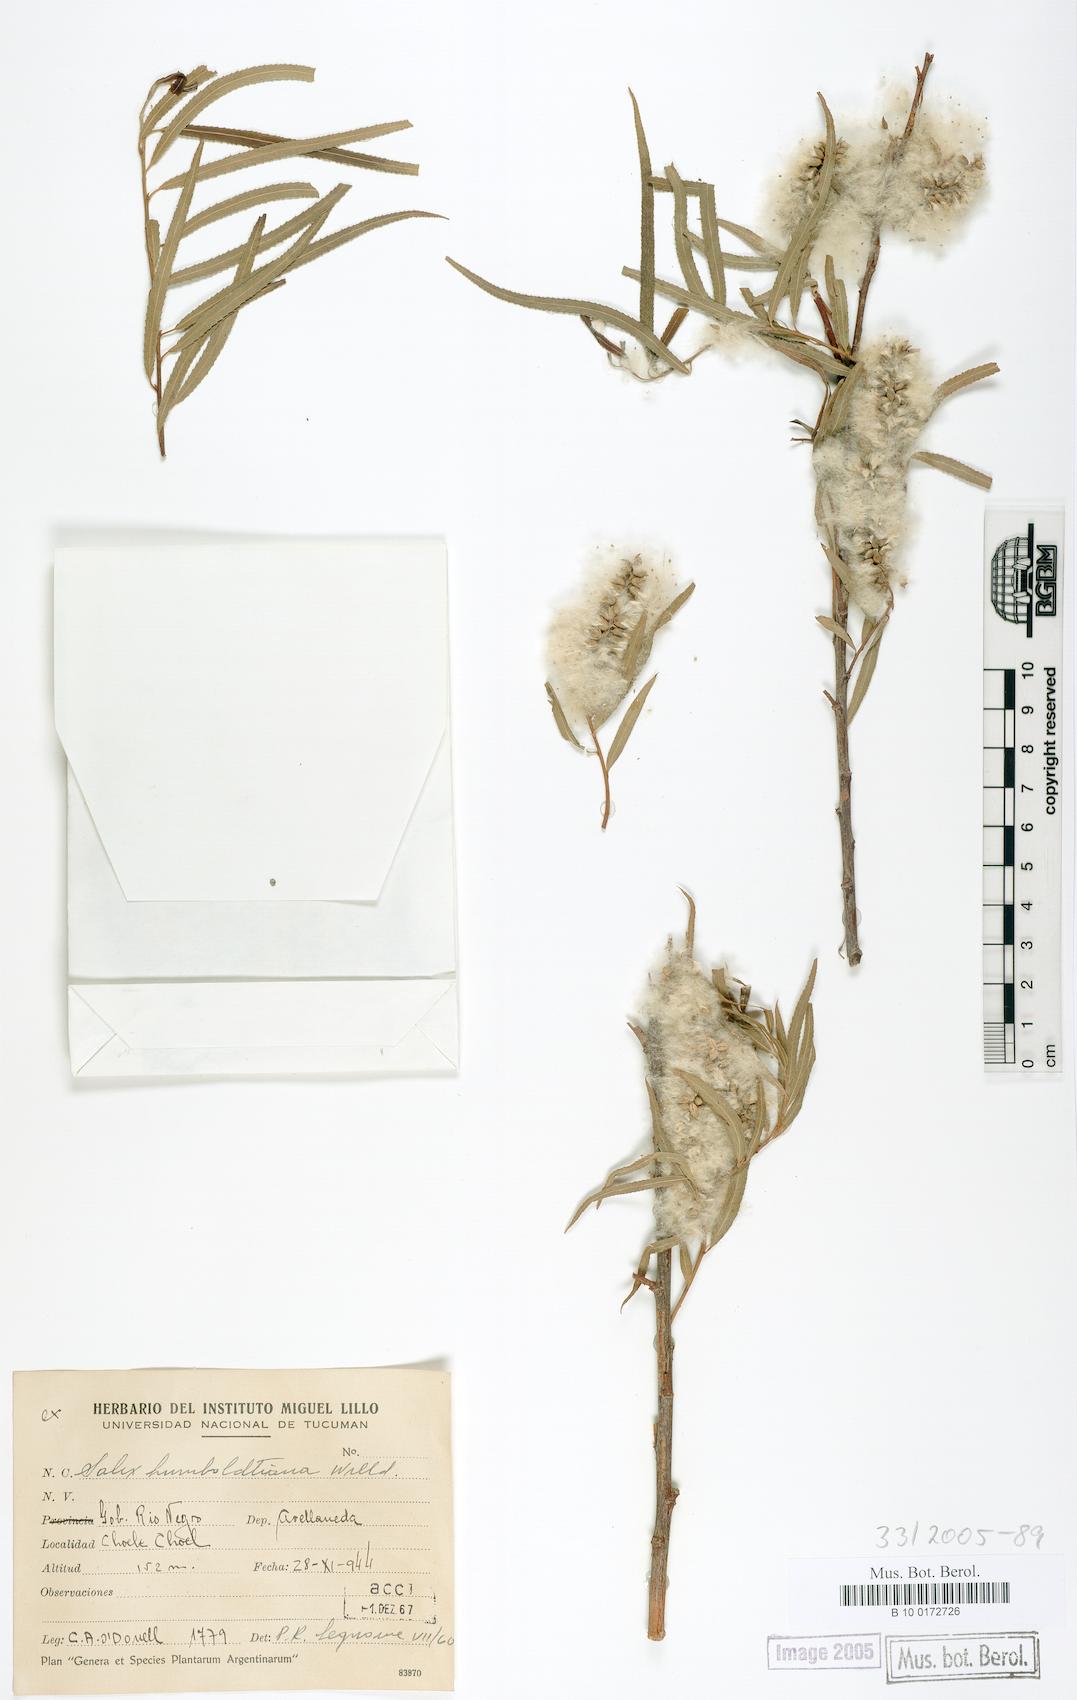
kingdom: Plantae
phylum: Tracheophyta
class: Magnoliopsida
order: Malpighiales
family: Salicaceae
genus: Salix
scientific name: Salix humboldtiana
